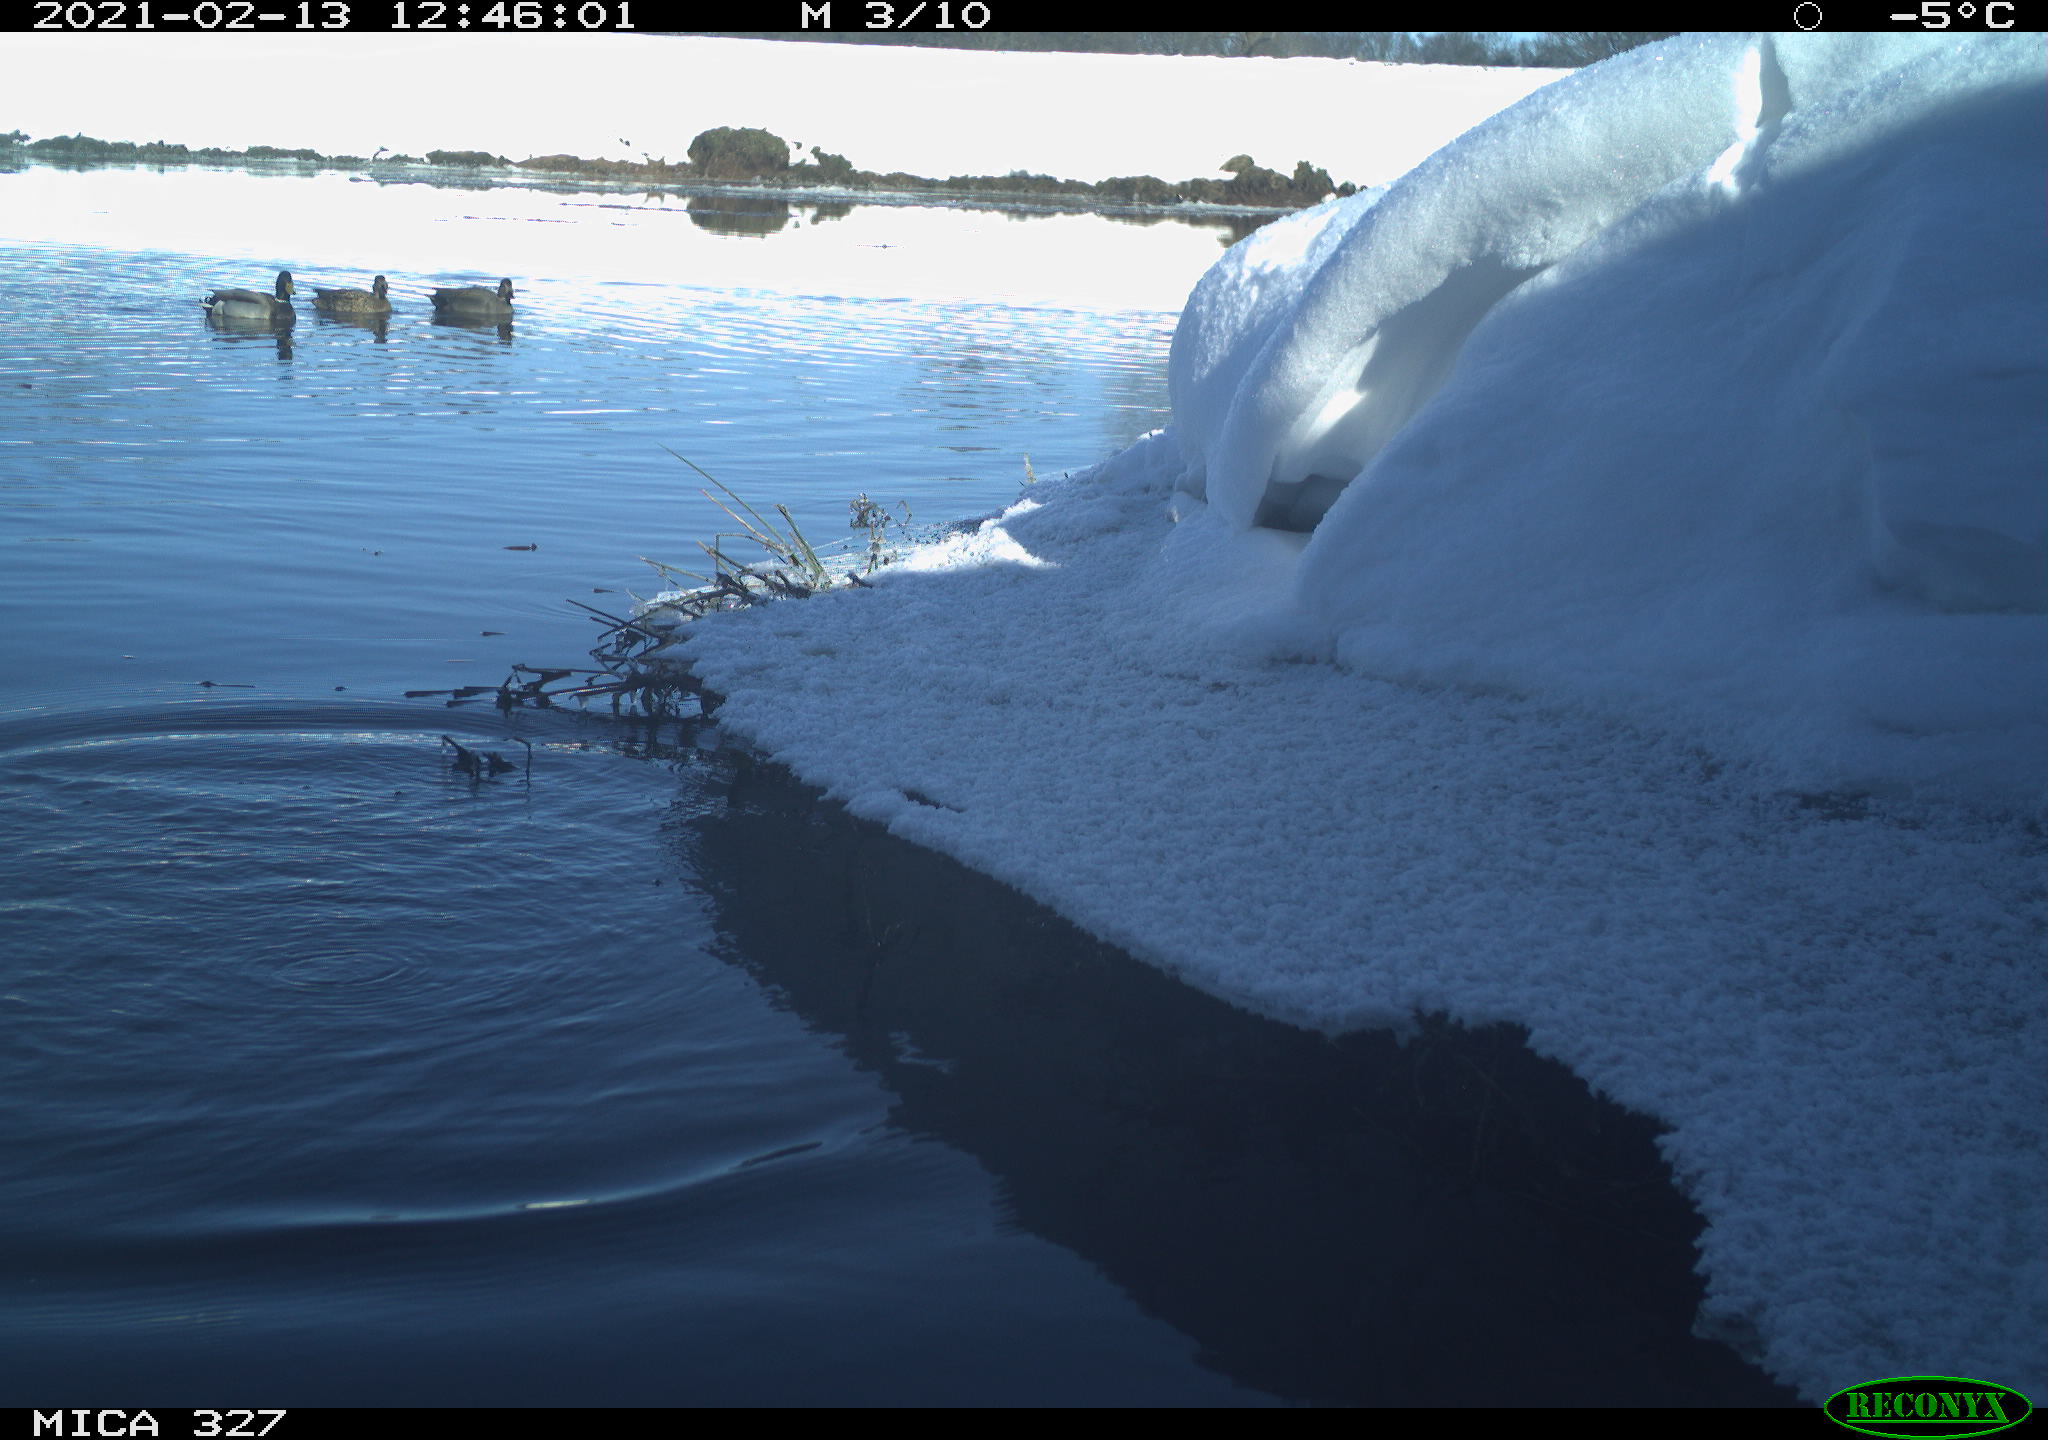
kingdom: Animalia
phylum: Chordata
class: Aves
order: Anseriformes
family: Anatidae
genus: Anas
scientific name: Anas platyrhynchos
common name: Mallard
